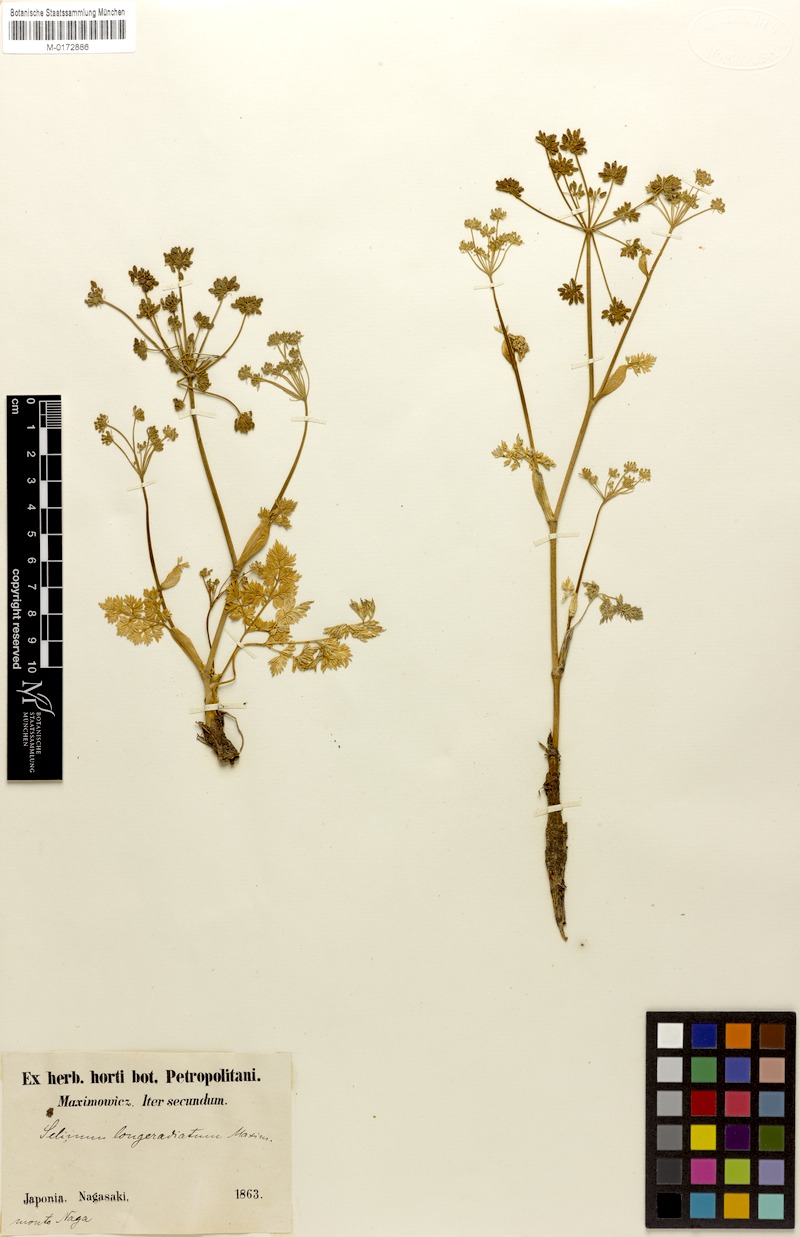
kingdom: Plantae
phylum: Tracheophyta
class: Magnoliopsida
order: Apiales
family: Apiaceae
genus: Angelica
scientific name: Angelica longeradiata
